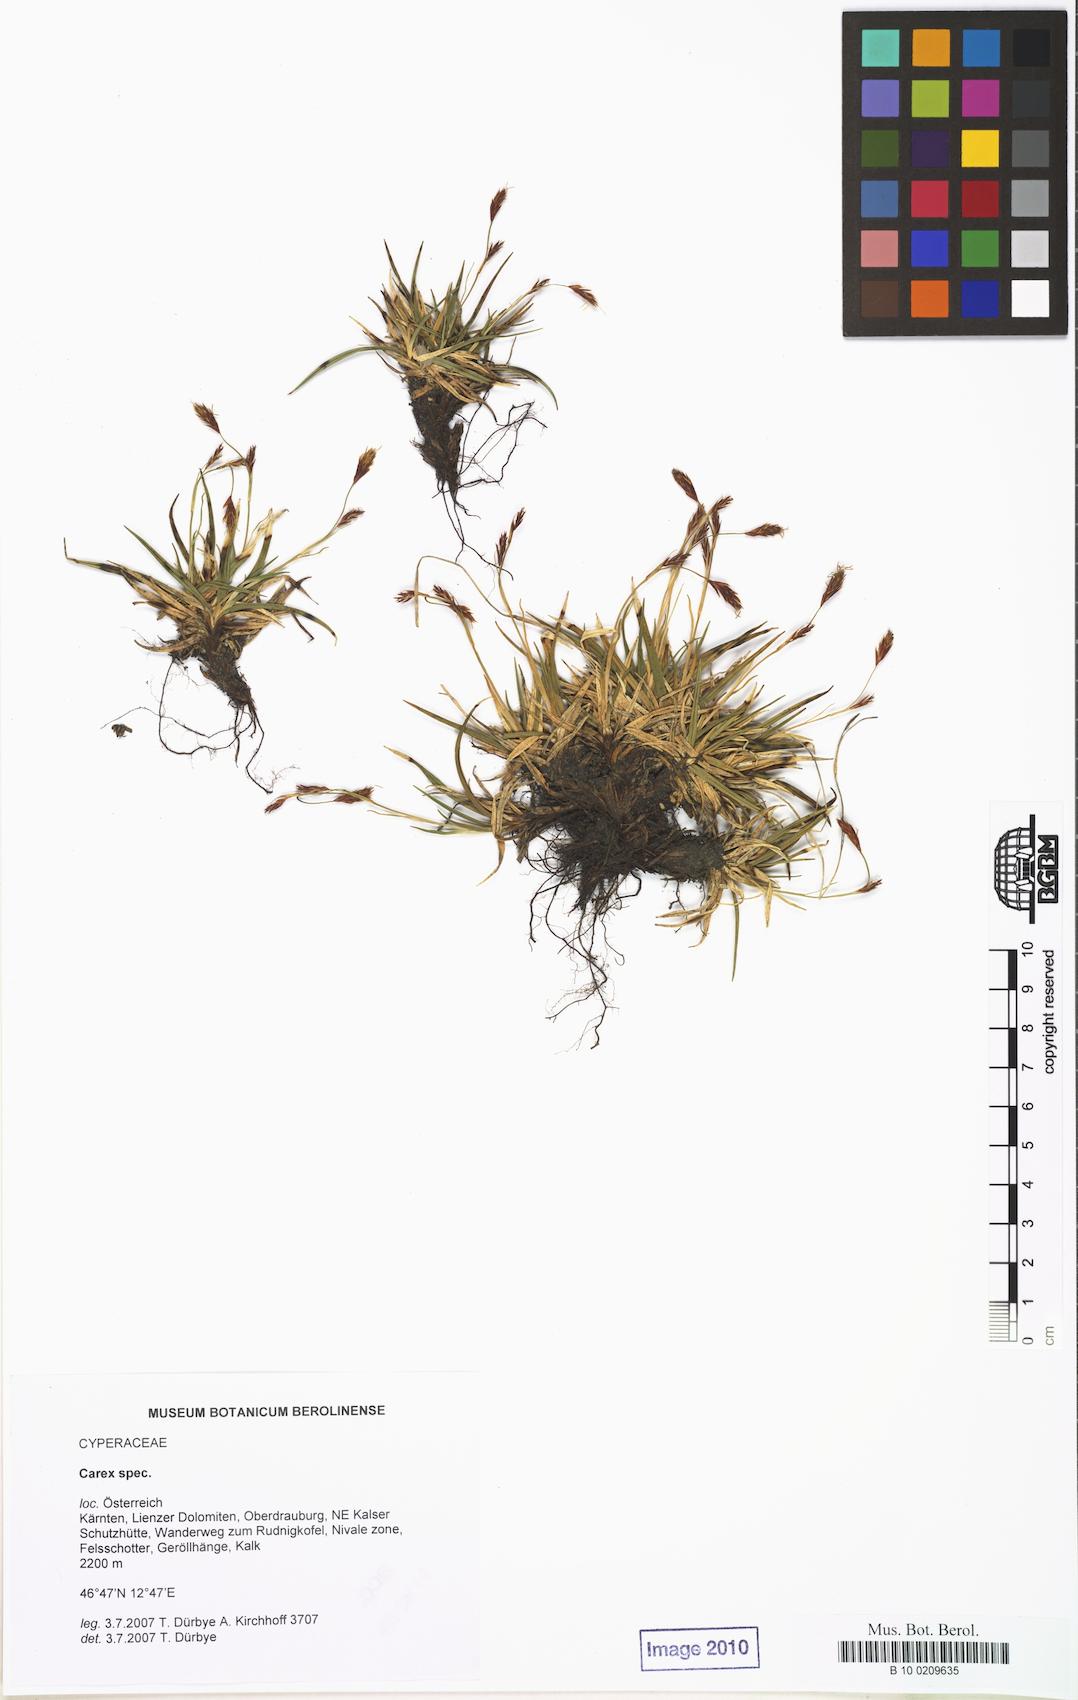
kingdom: Plantae
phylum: Tracheophyta
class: Liliopsida
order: Poales
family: Cyperaceae
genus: Carex
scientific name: Carex
